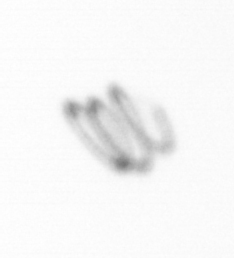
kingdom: Chromista
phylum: Ochrophyta
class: Bacillariophyceae
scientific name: Bacillariophyceae
